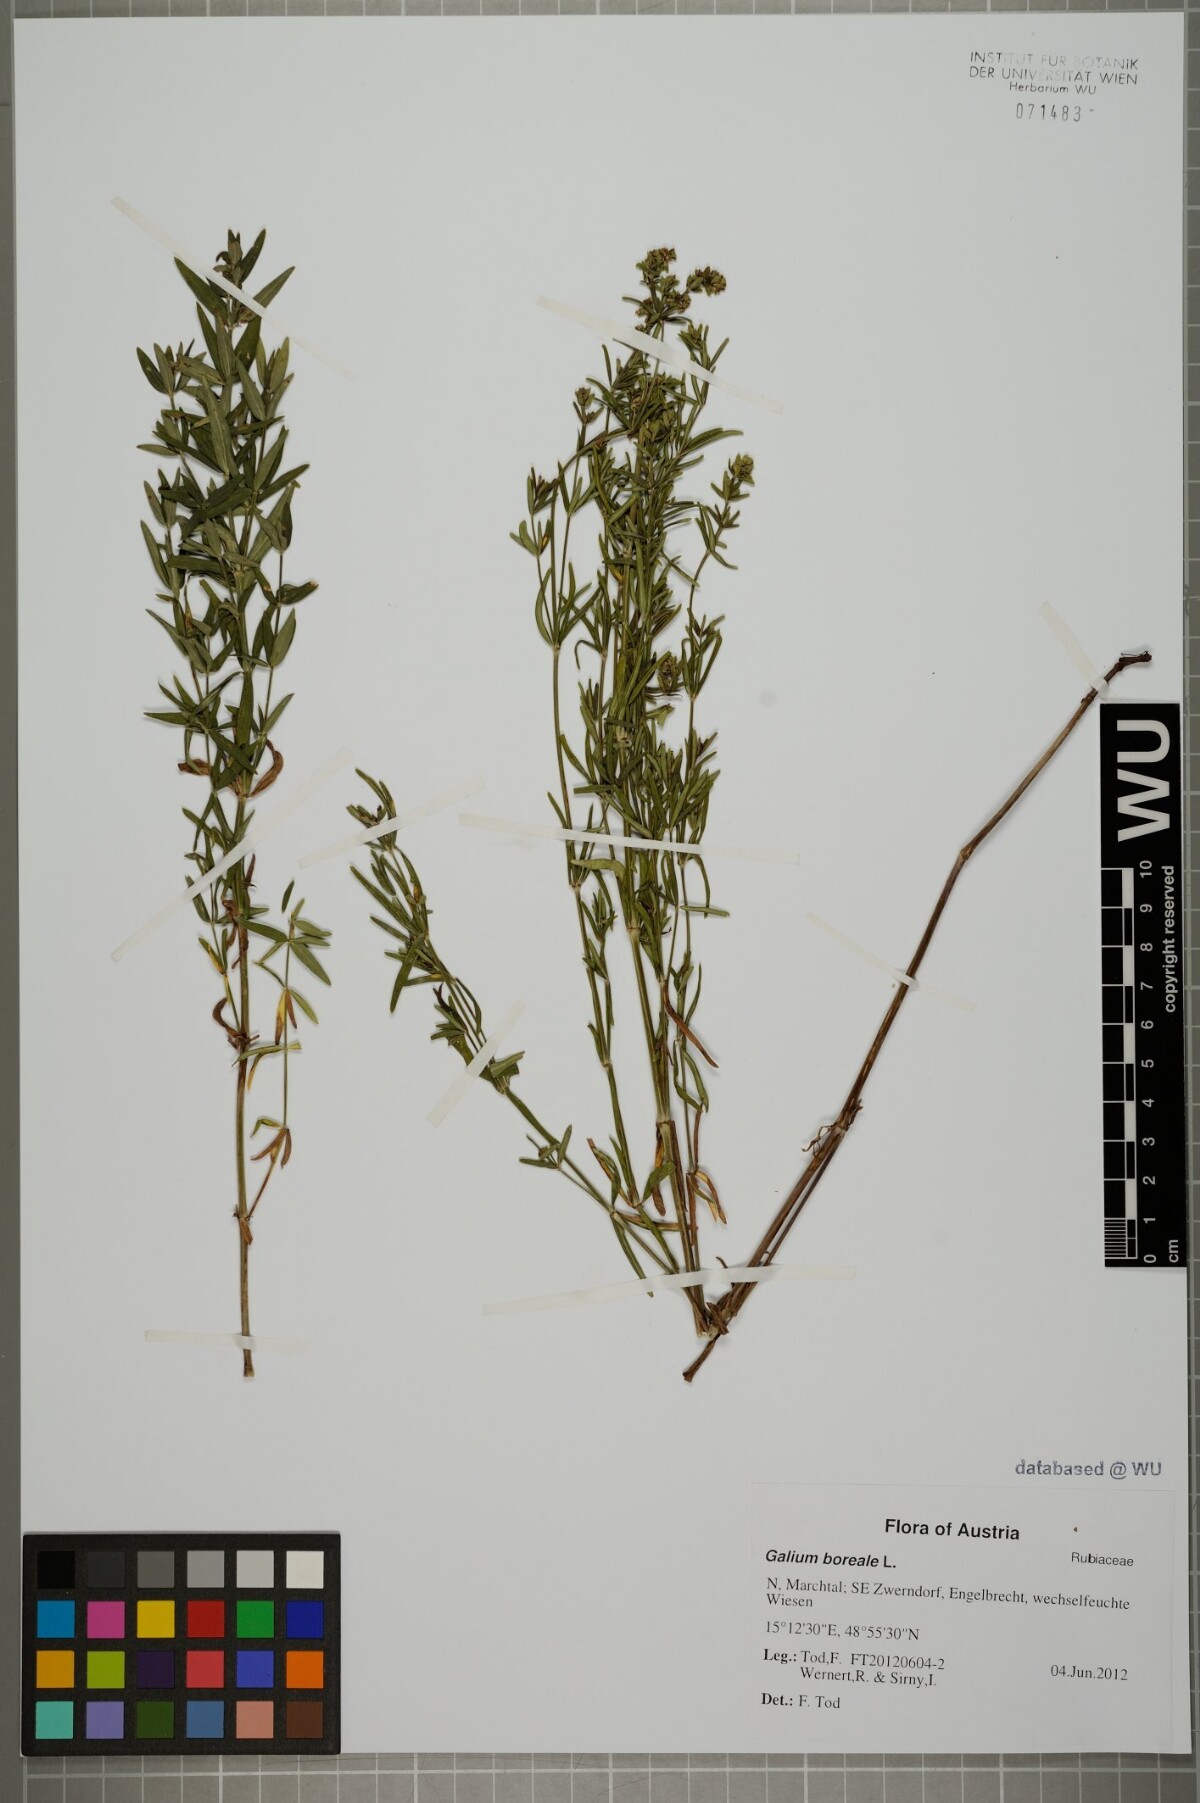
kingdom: Plantae
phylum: Tracheophyta
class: Magnoliopsida
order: Gentianales
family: Rubiaceae
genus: Galium
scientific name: Galium boreale
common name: Northern bedstraw
